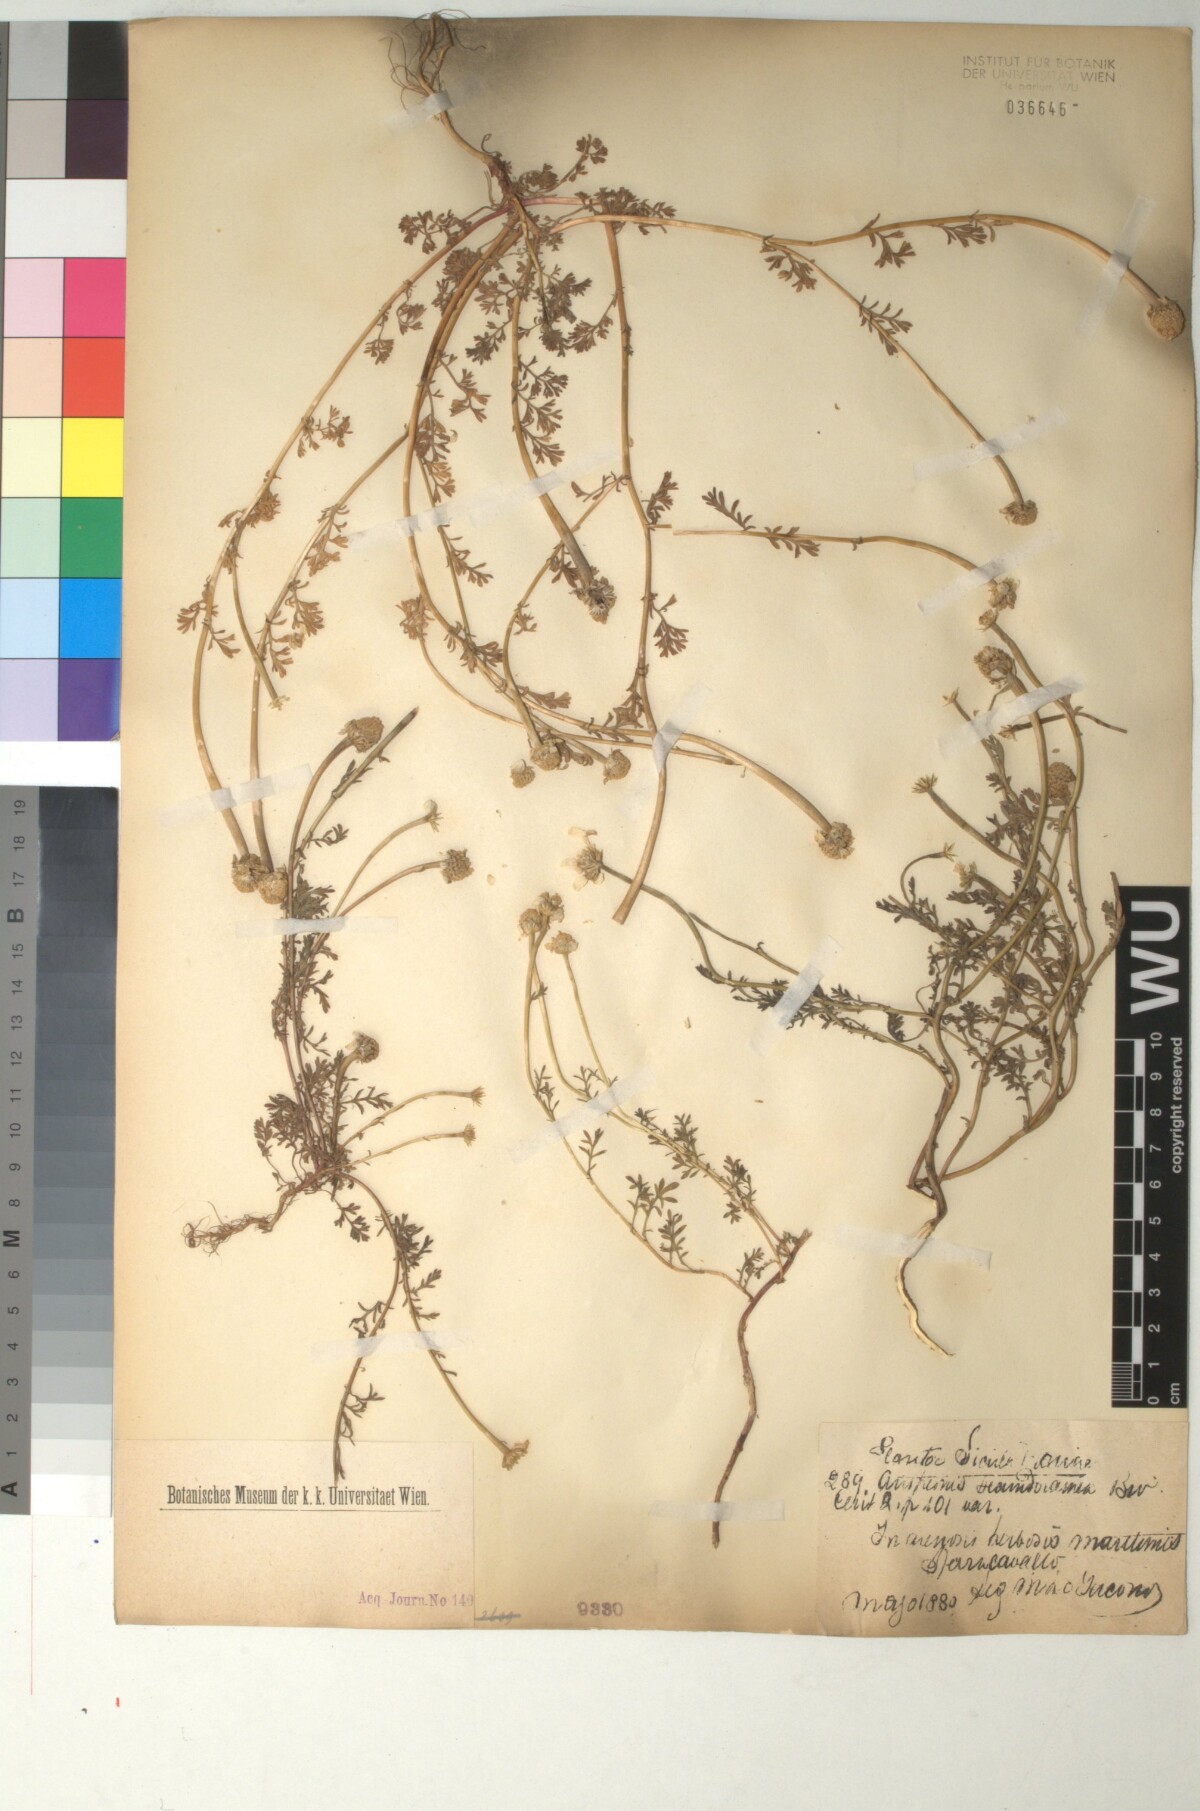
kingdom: Plantae
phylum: Tracheophyta
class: Magnoliopsida
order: Asterales
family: Asteraceae
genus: Anthemis
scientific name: Anthemis secundiramea
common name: Prostrate chamomile
